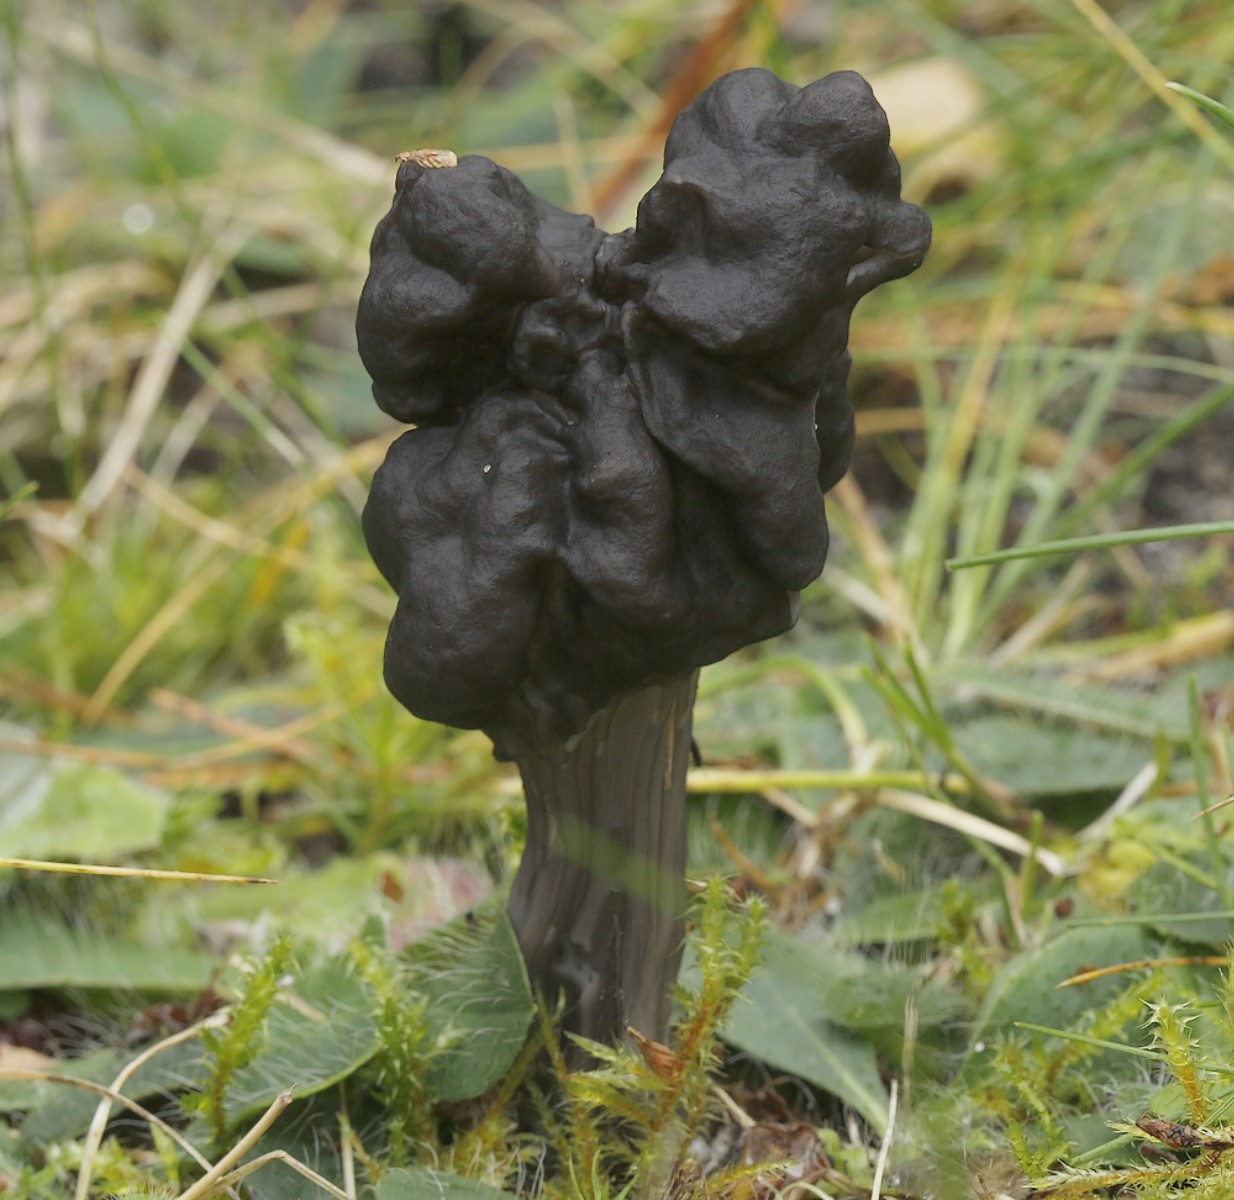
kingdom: Fungi
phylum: Ascomycota
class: Pezizomycetes
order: Pezizales
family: Helvellaceae
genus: Helvella
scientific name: Helvella lacunosa
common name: grubet foldhat
